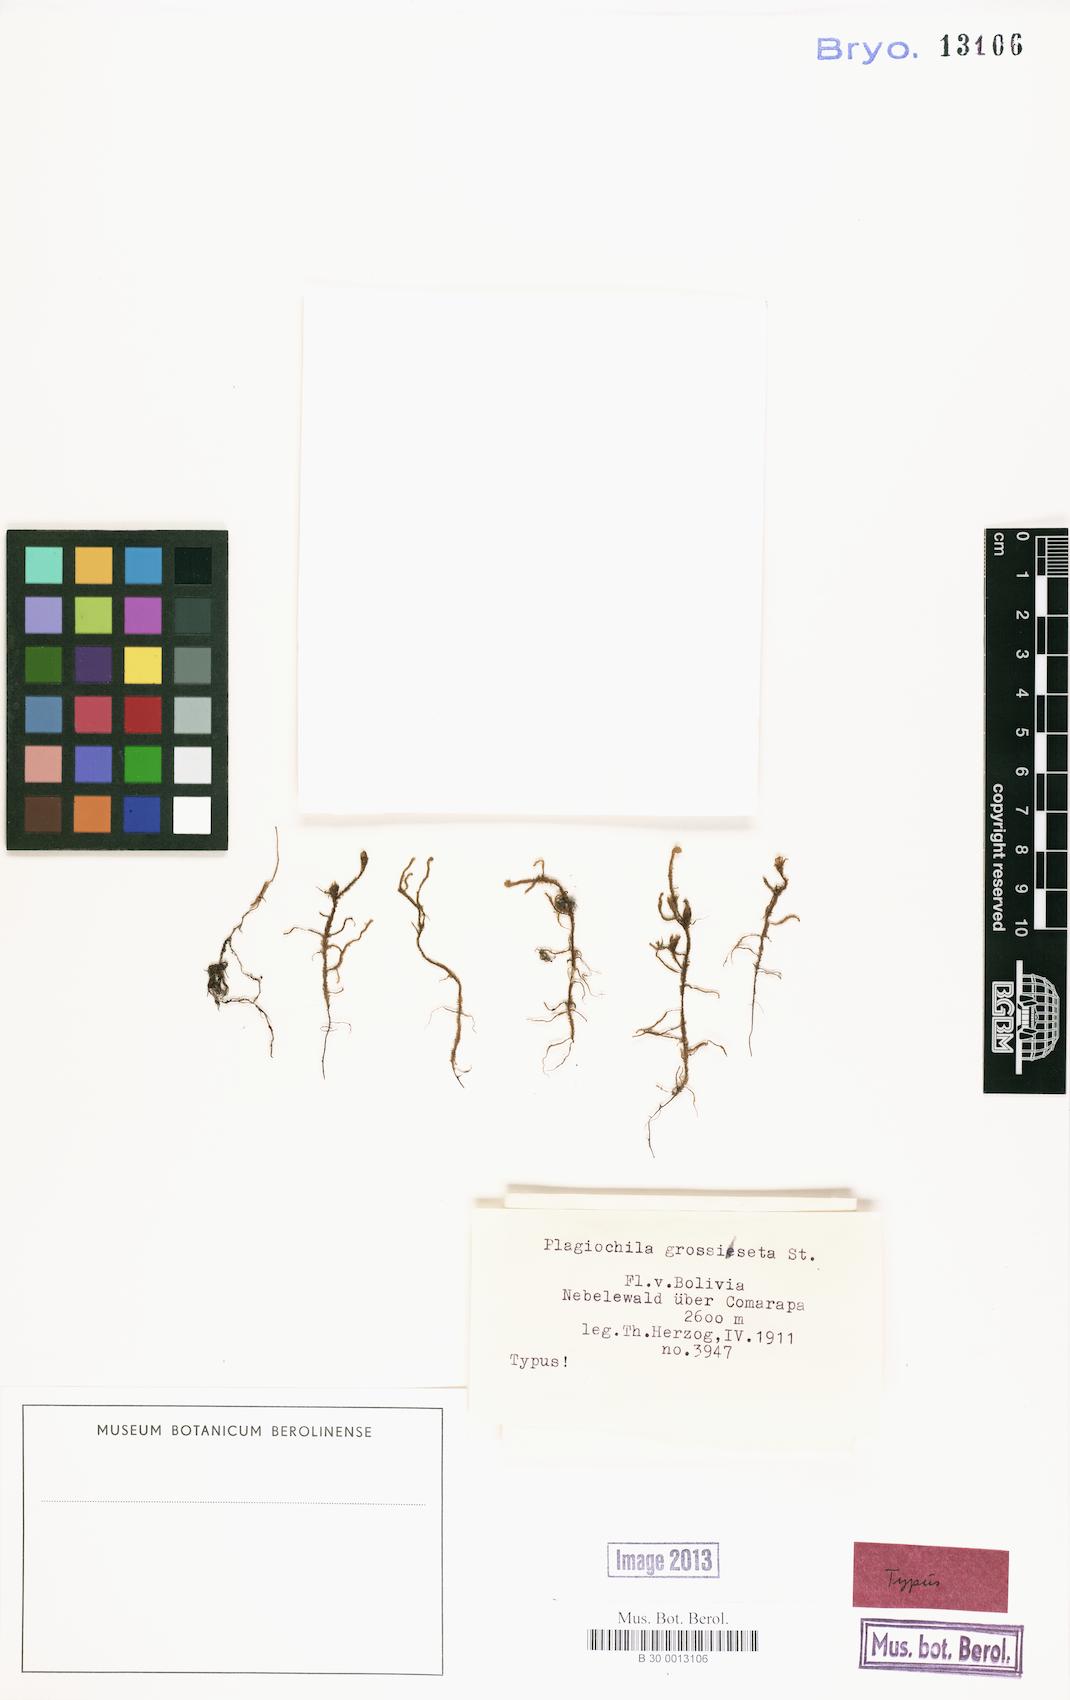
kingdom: Plantae
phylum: Marchantiophyta
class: Jungermanniopsida
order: Jungermanniales
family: Plagiochilaceae
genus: Plagiochila
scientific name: Plagiochila bifaria
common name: Killarney featherwort
